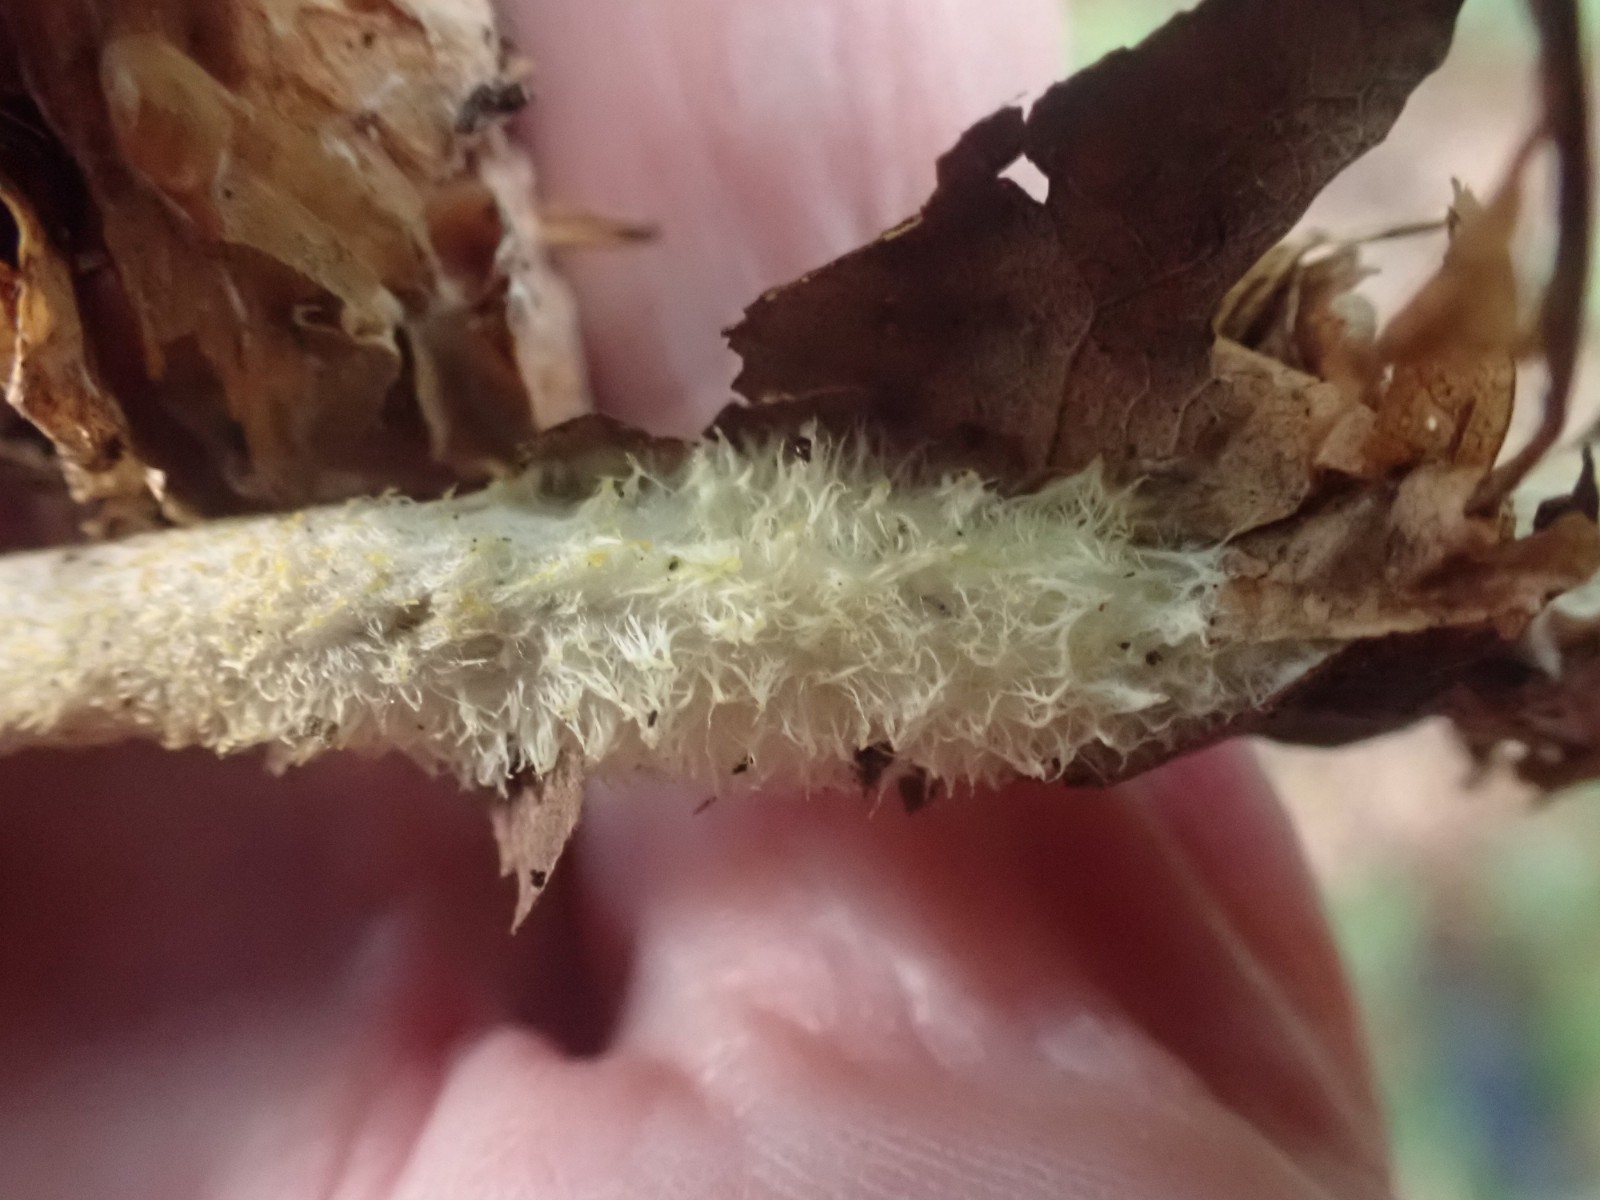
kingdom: Fungi
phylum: Basidiomycota
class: Agaricomycetes
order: Agaricales
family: Omphalotaceae
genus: Collybiopsis
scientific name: Collybiopsis peronata
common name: bestøvlet fladhat
